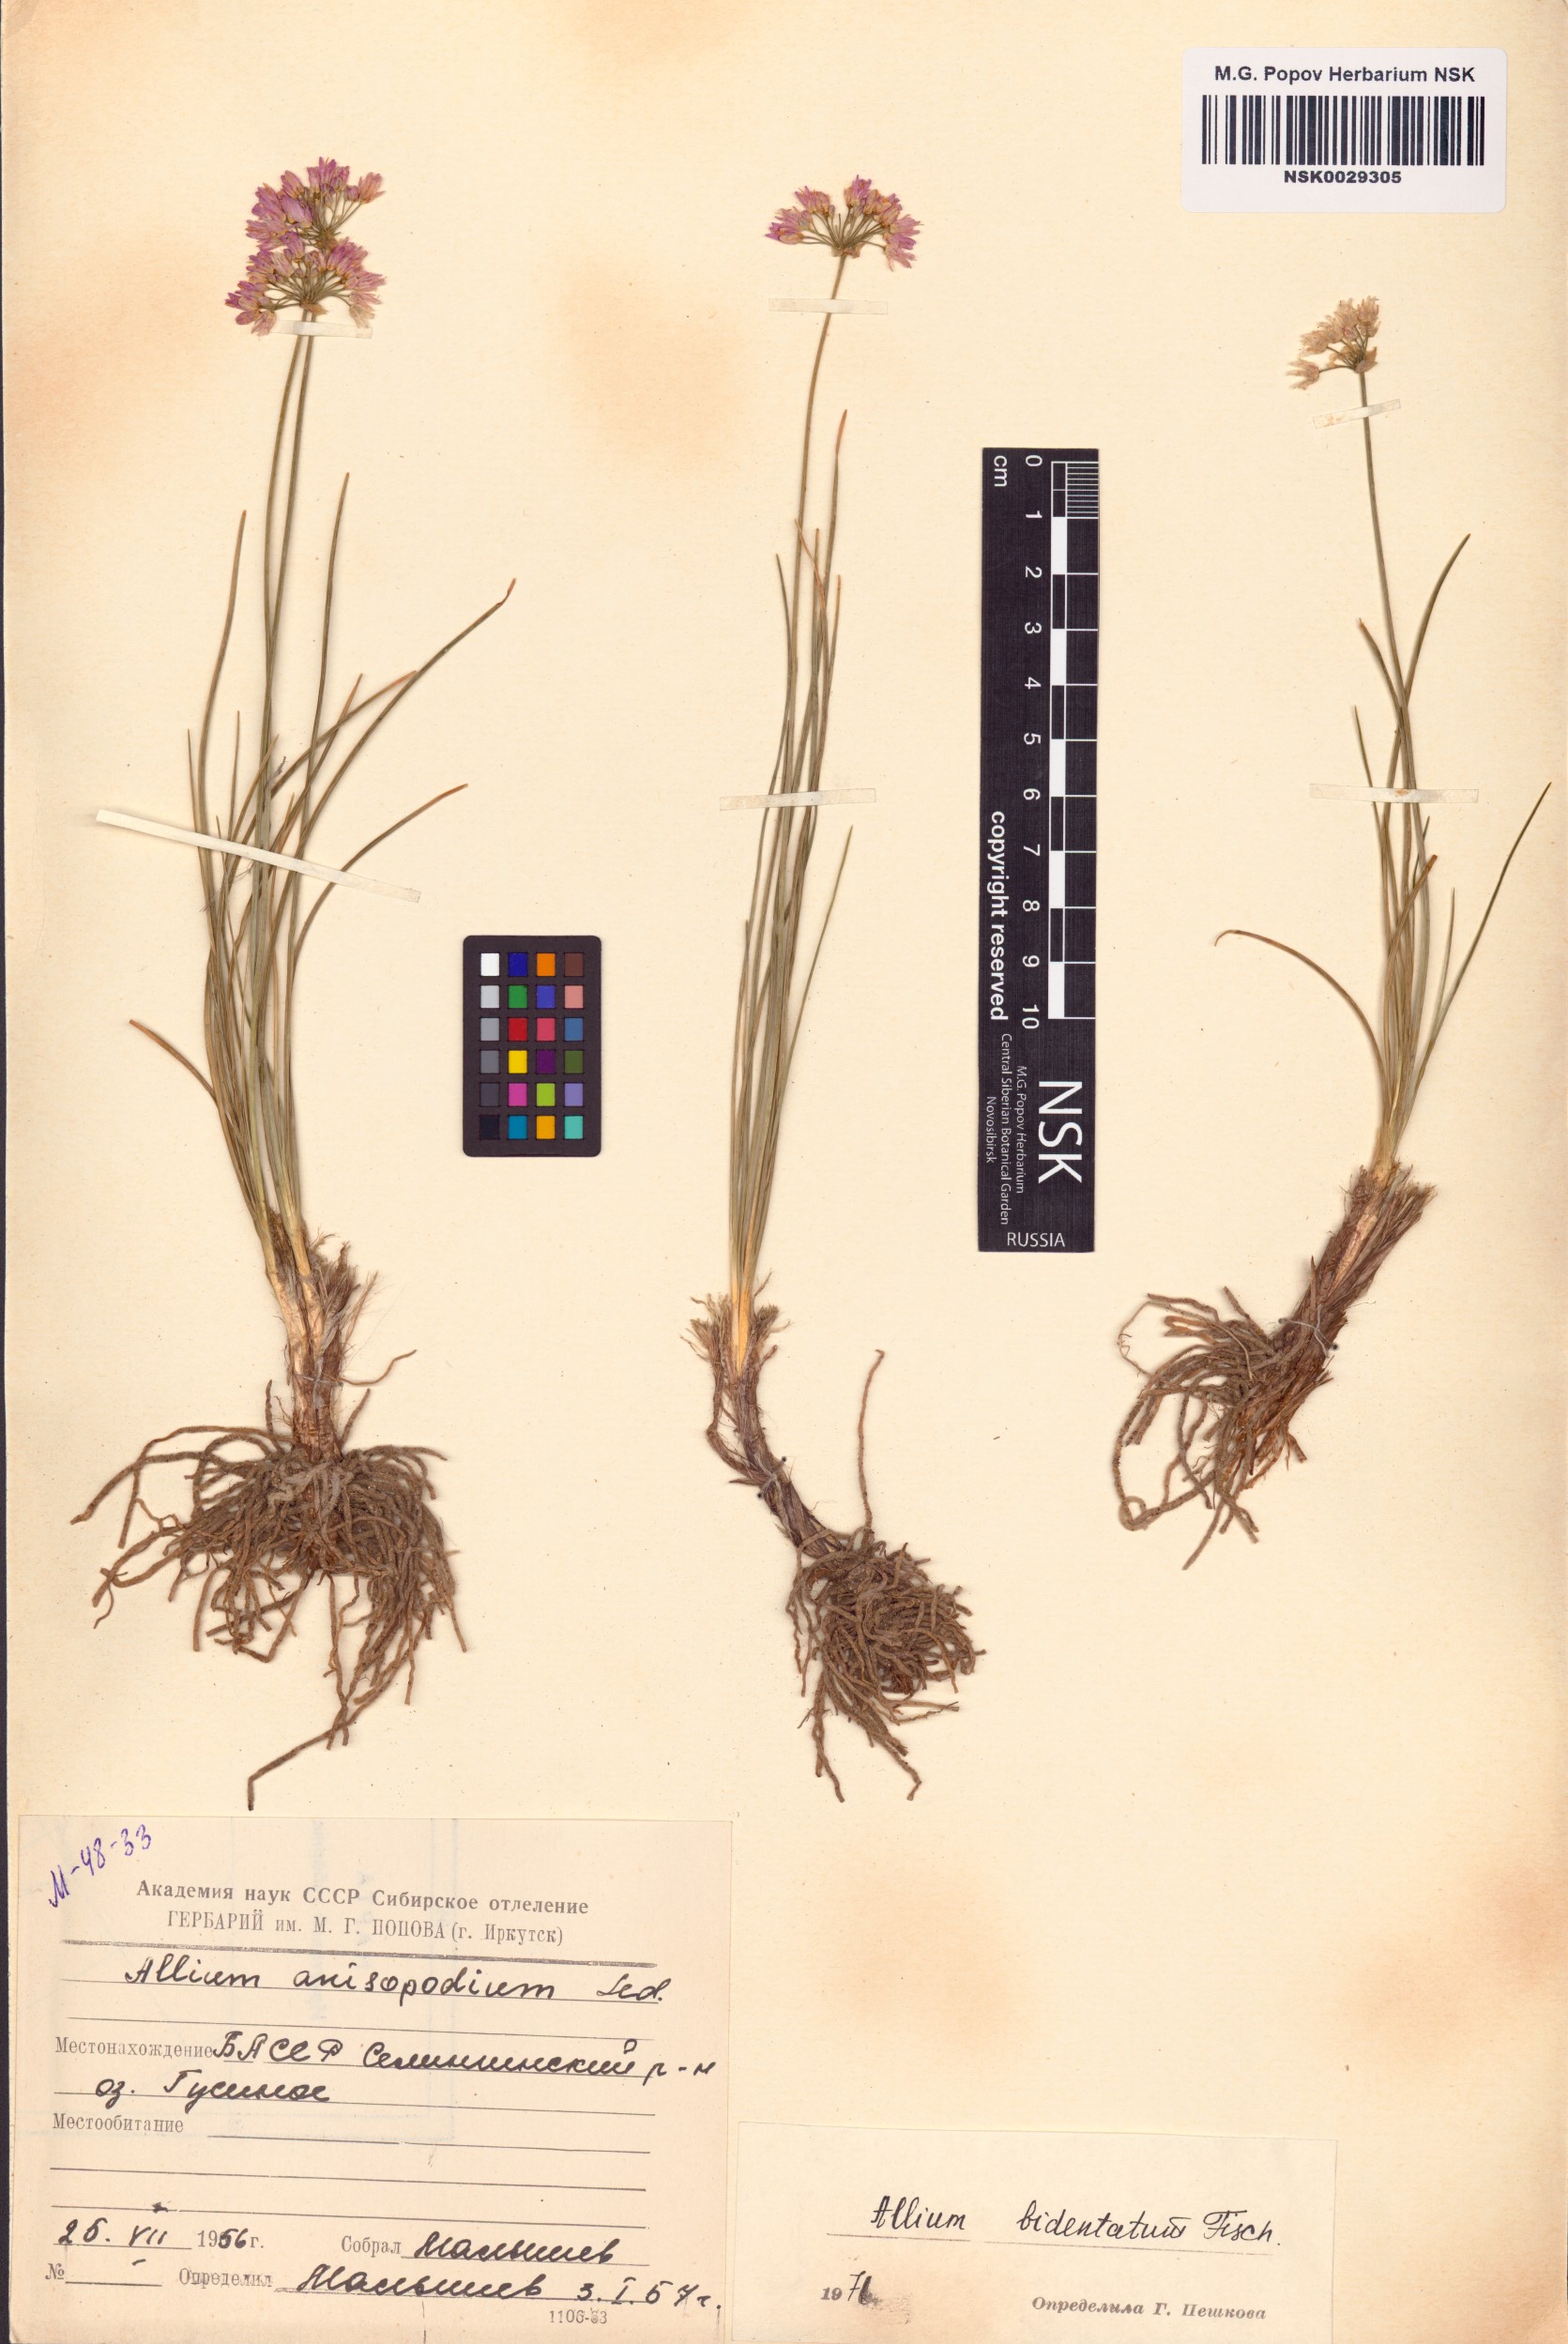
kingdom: Plantae
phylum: Tracheophyta
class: Liliopsida
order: Asparagales
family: Amaryllidaceae
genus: Allium
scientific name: Allium bidentatum
